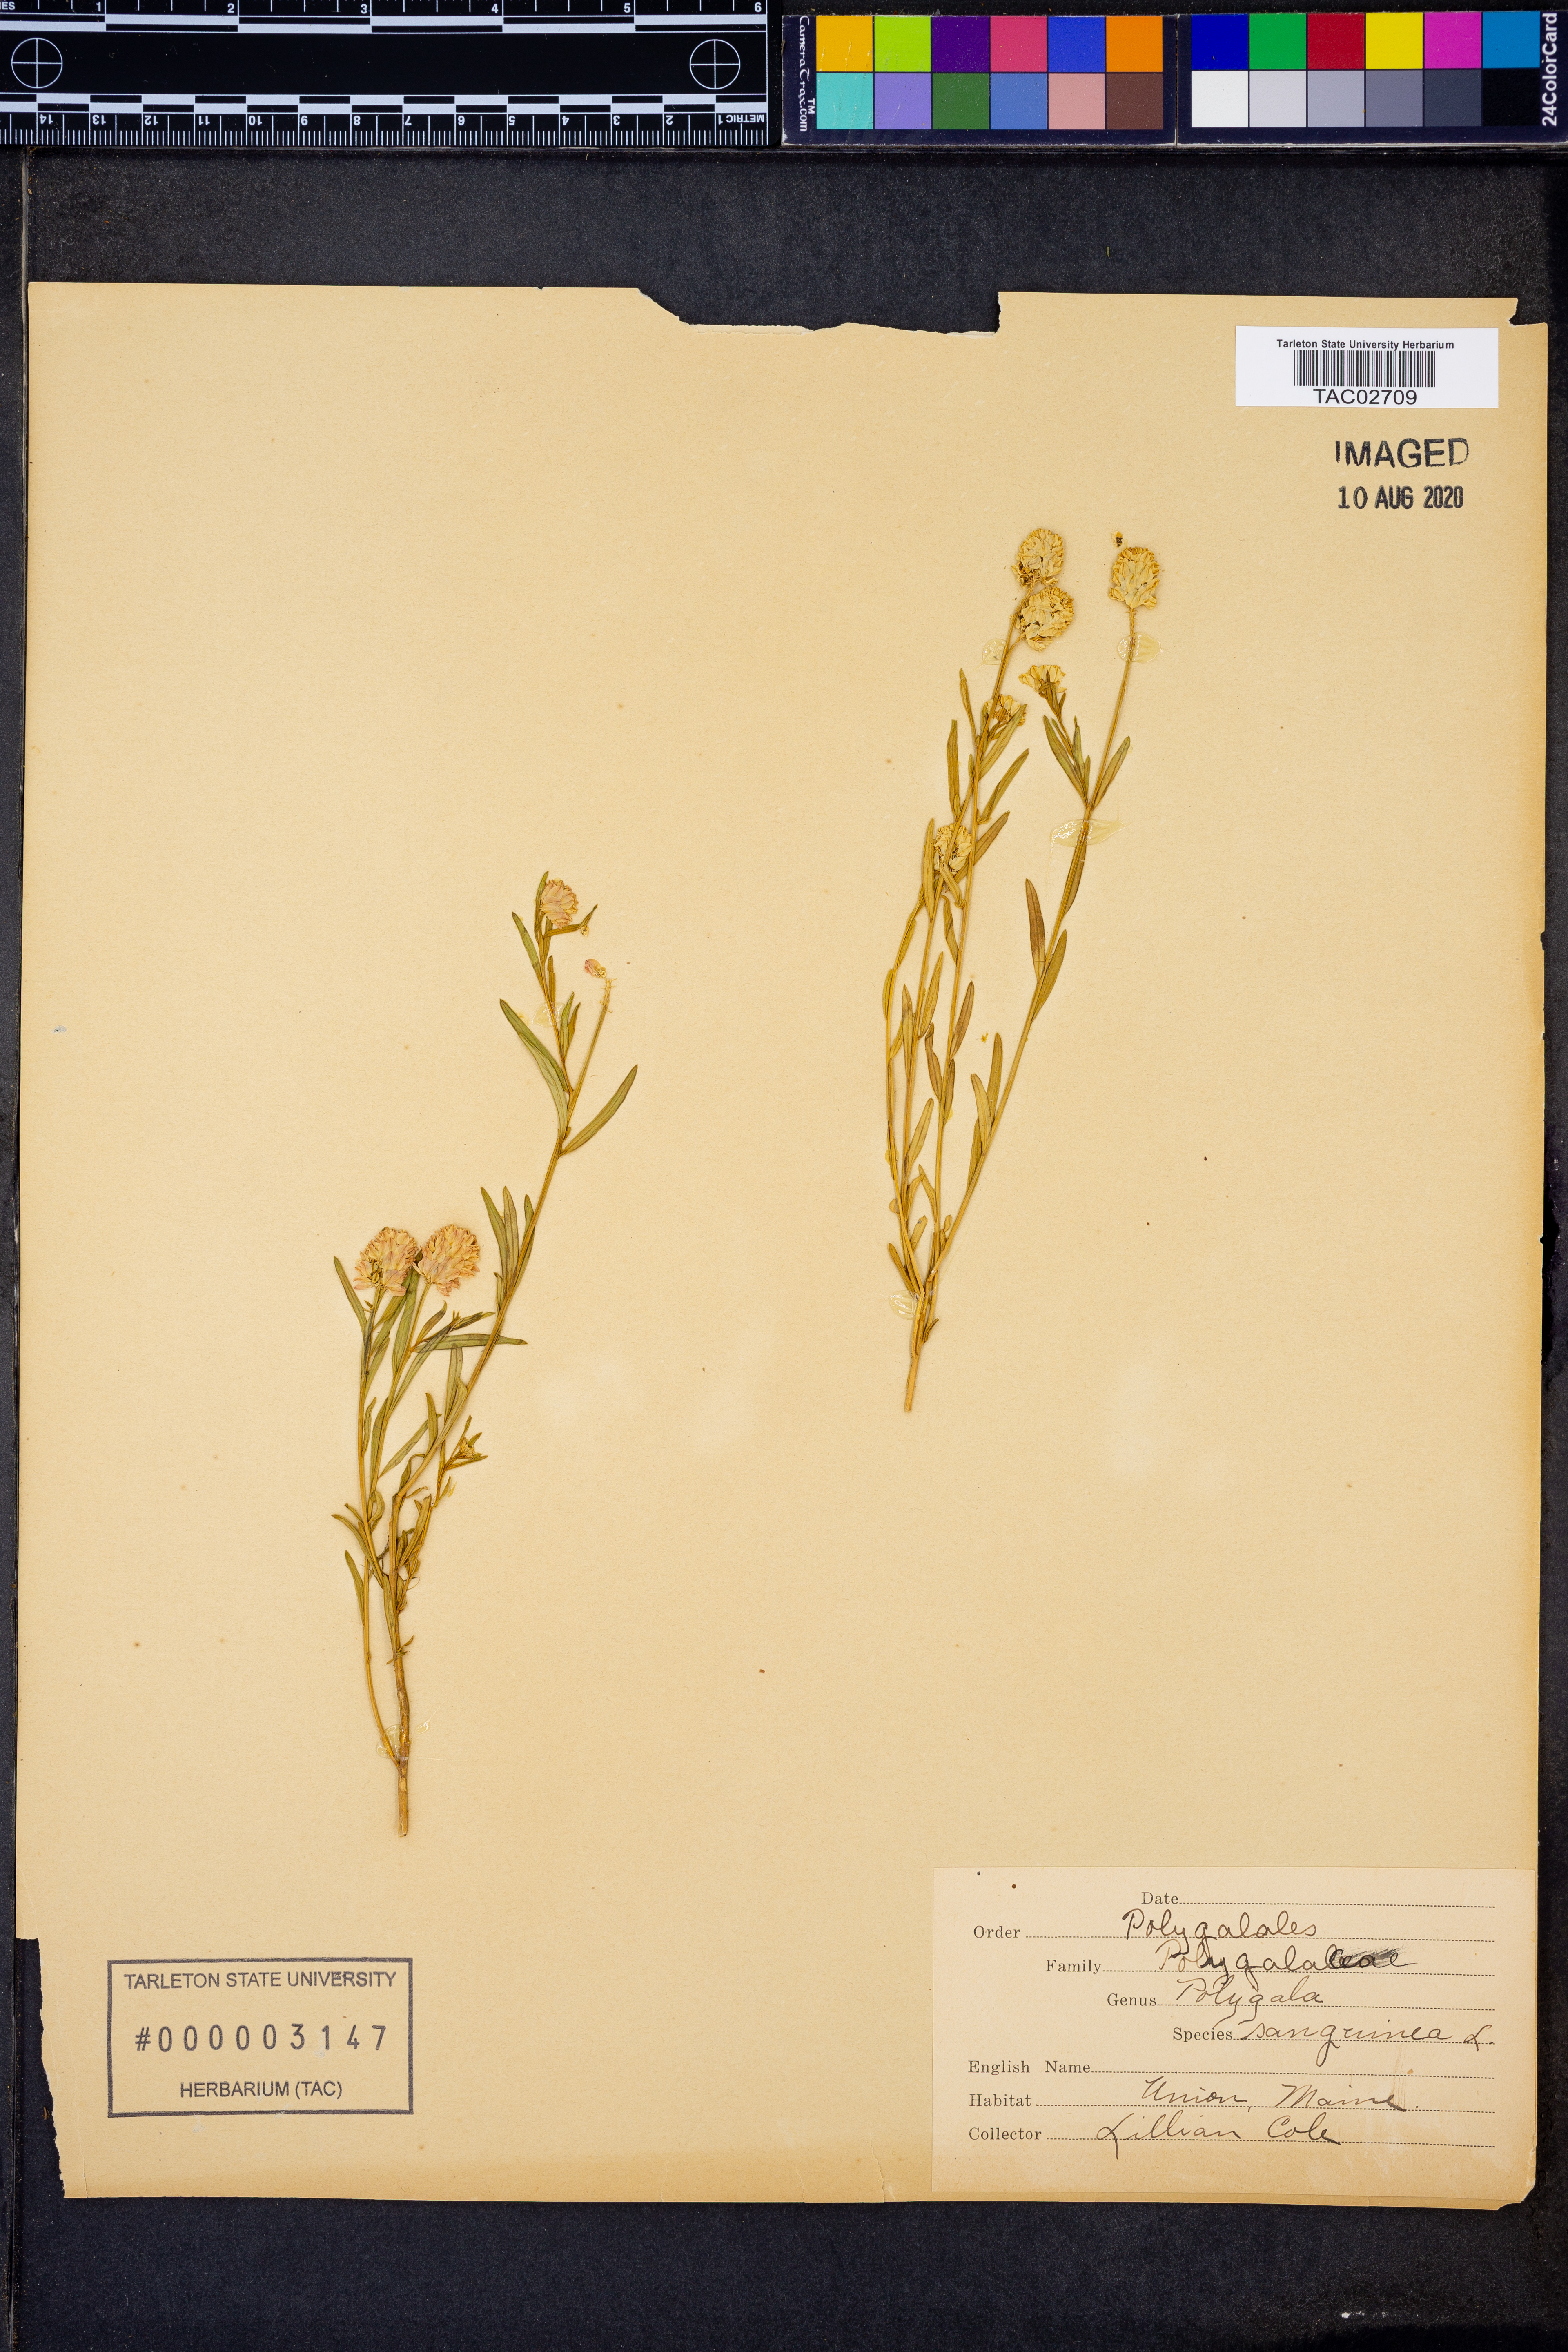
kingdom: Plantae
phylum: Tracheophyta
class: Magnoliopsida
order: Fabales
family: Polygalaceae
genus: Polygala
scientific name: Polygala sanguinea
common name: Blood milkwort
